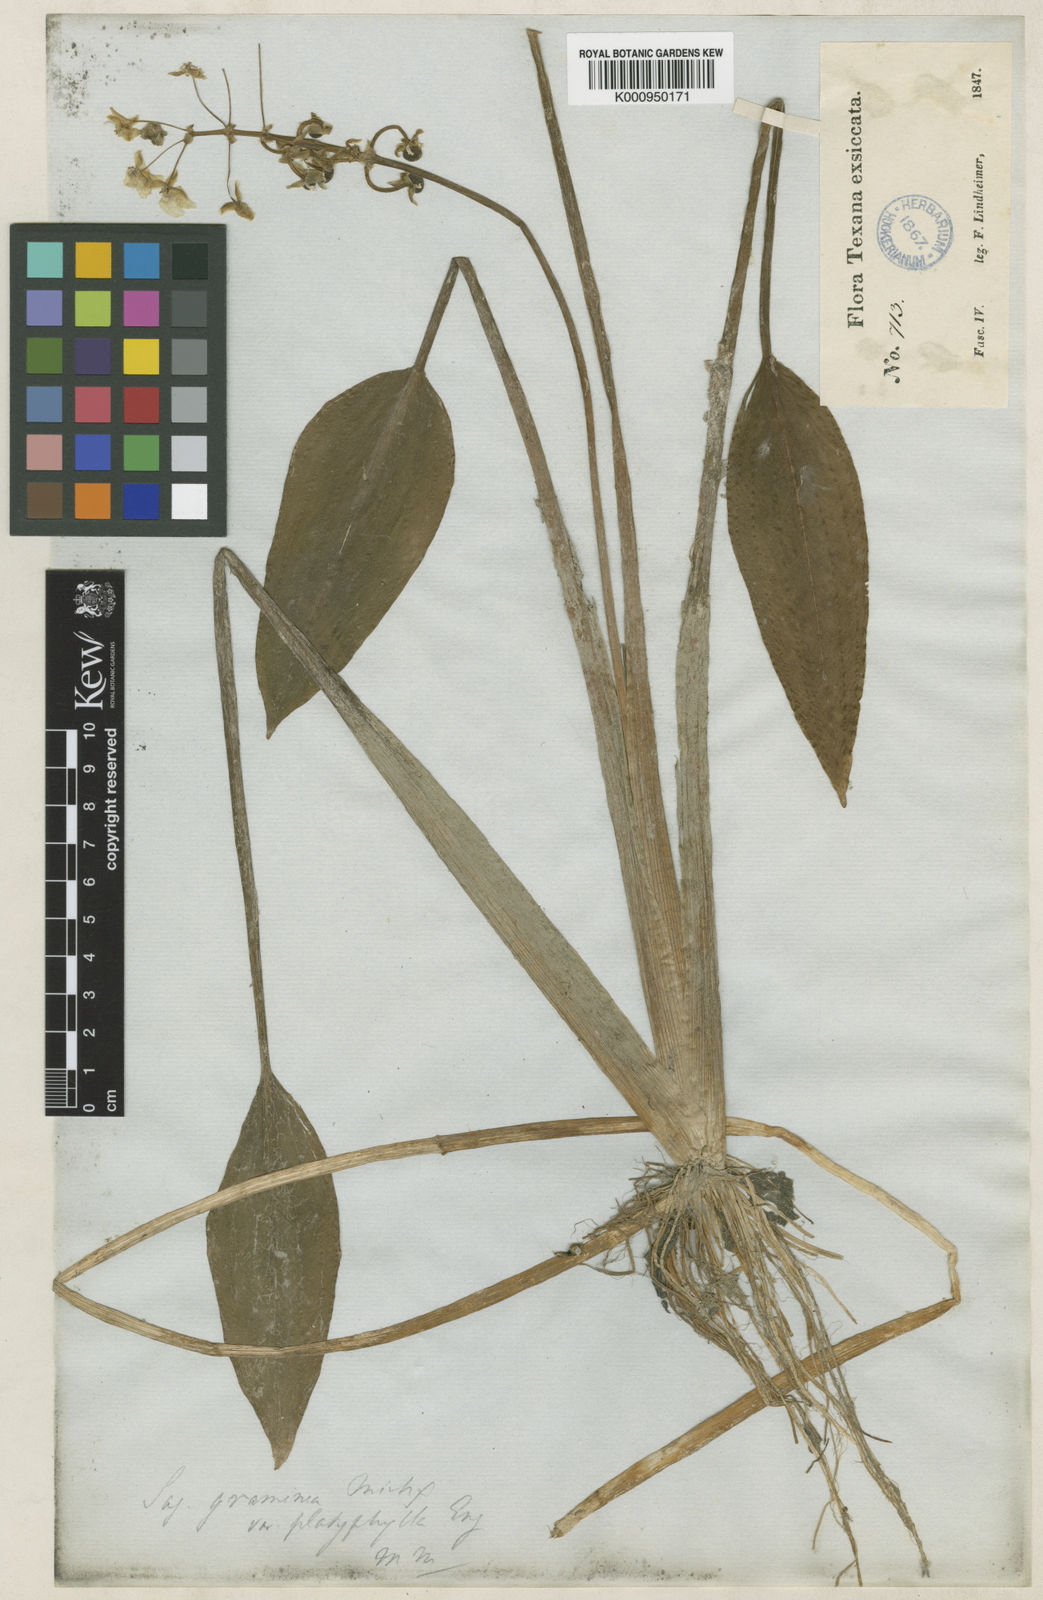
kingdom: Plantae
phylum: Tracheophyta
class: Liliopsida
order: Alismatales
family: Alismataceae
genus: Sagittaria
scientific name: Sagittaria graminea
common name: Grass-leaved arrowhead
